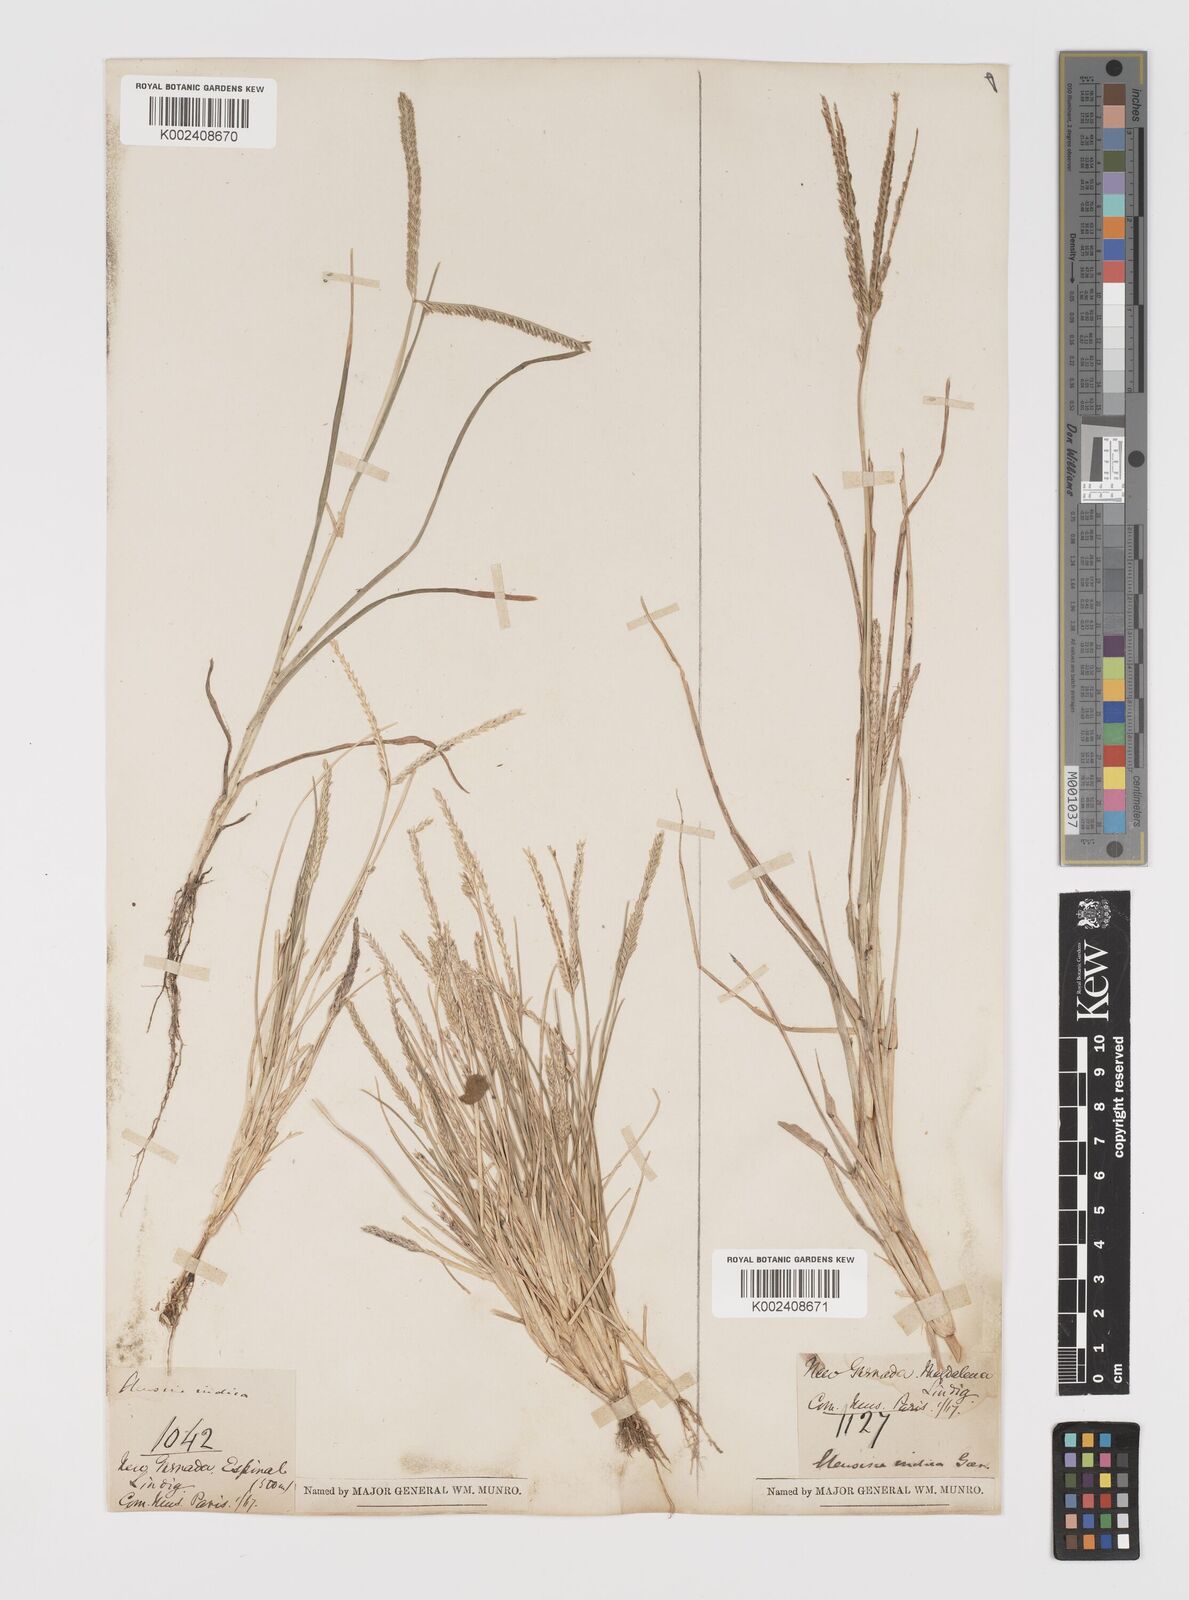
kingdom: Plantae
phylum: Tracheophyta
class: Liliopsida
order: Poales
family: Poaceae
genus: Eleusine
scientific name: Eleusine indica
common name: Yard-grass
